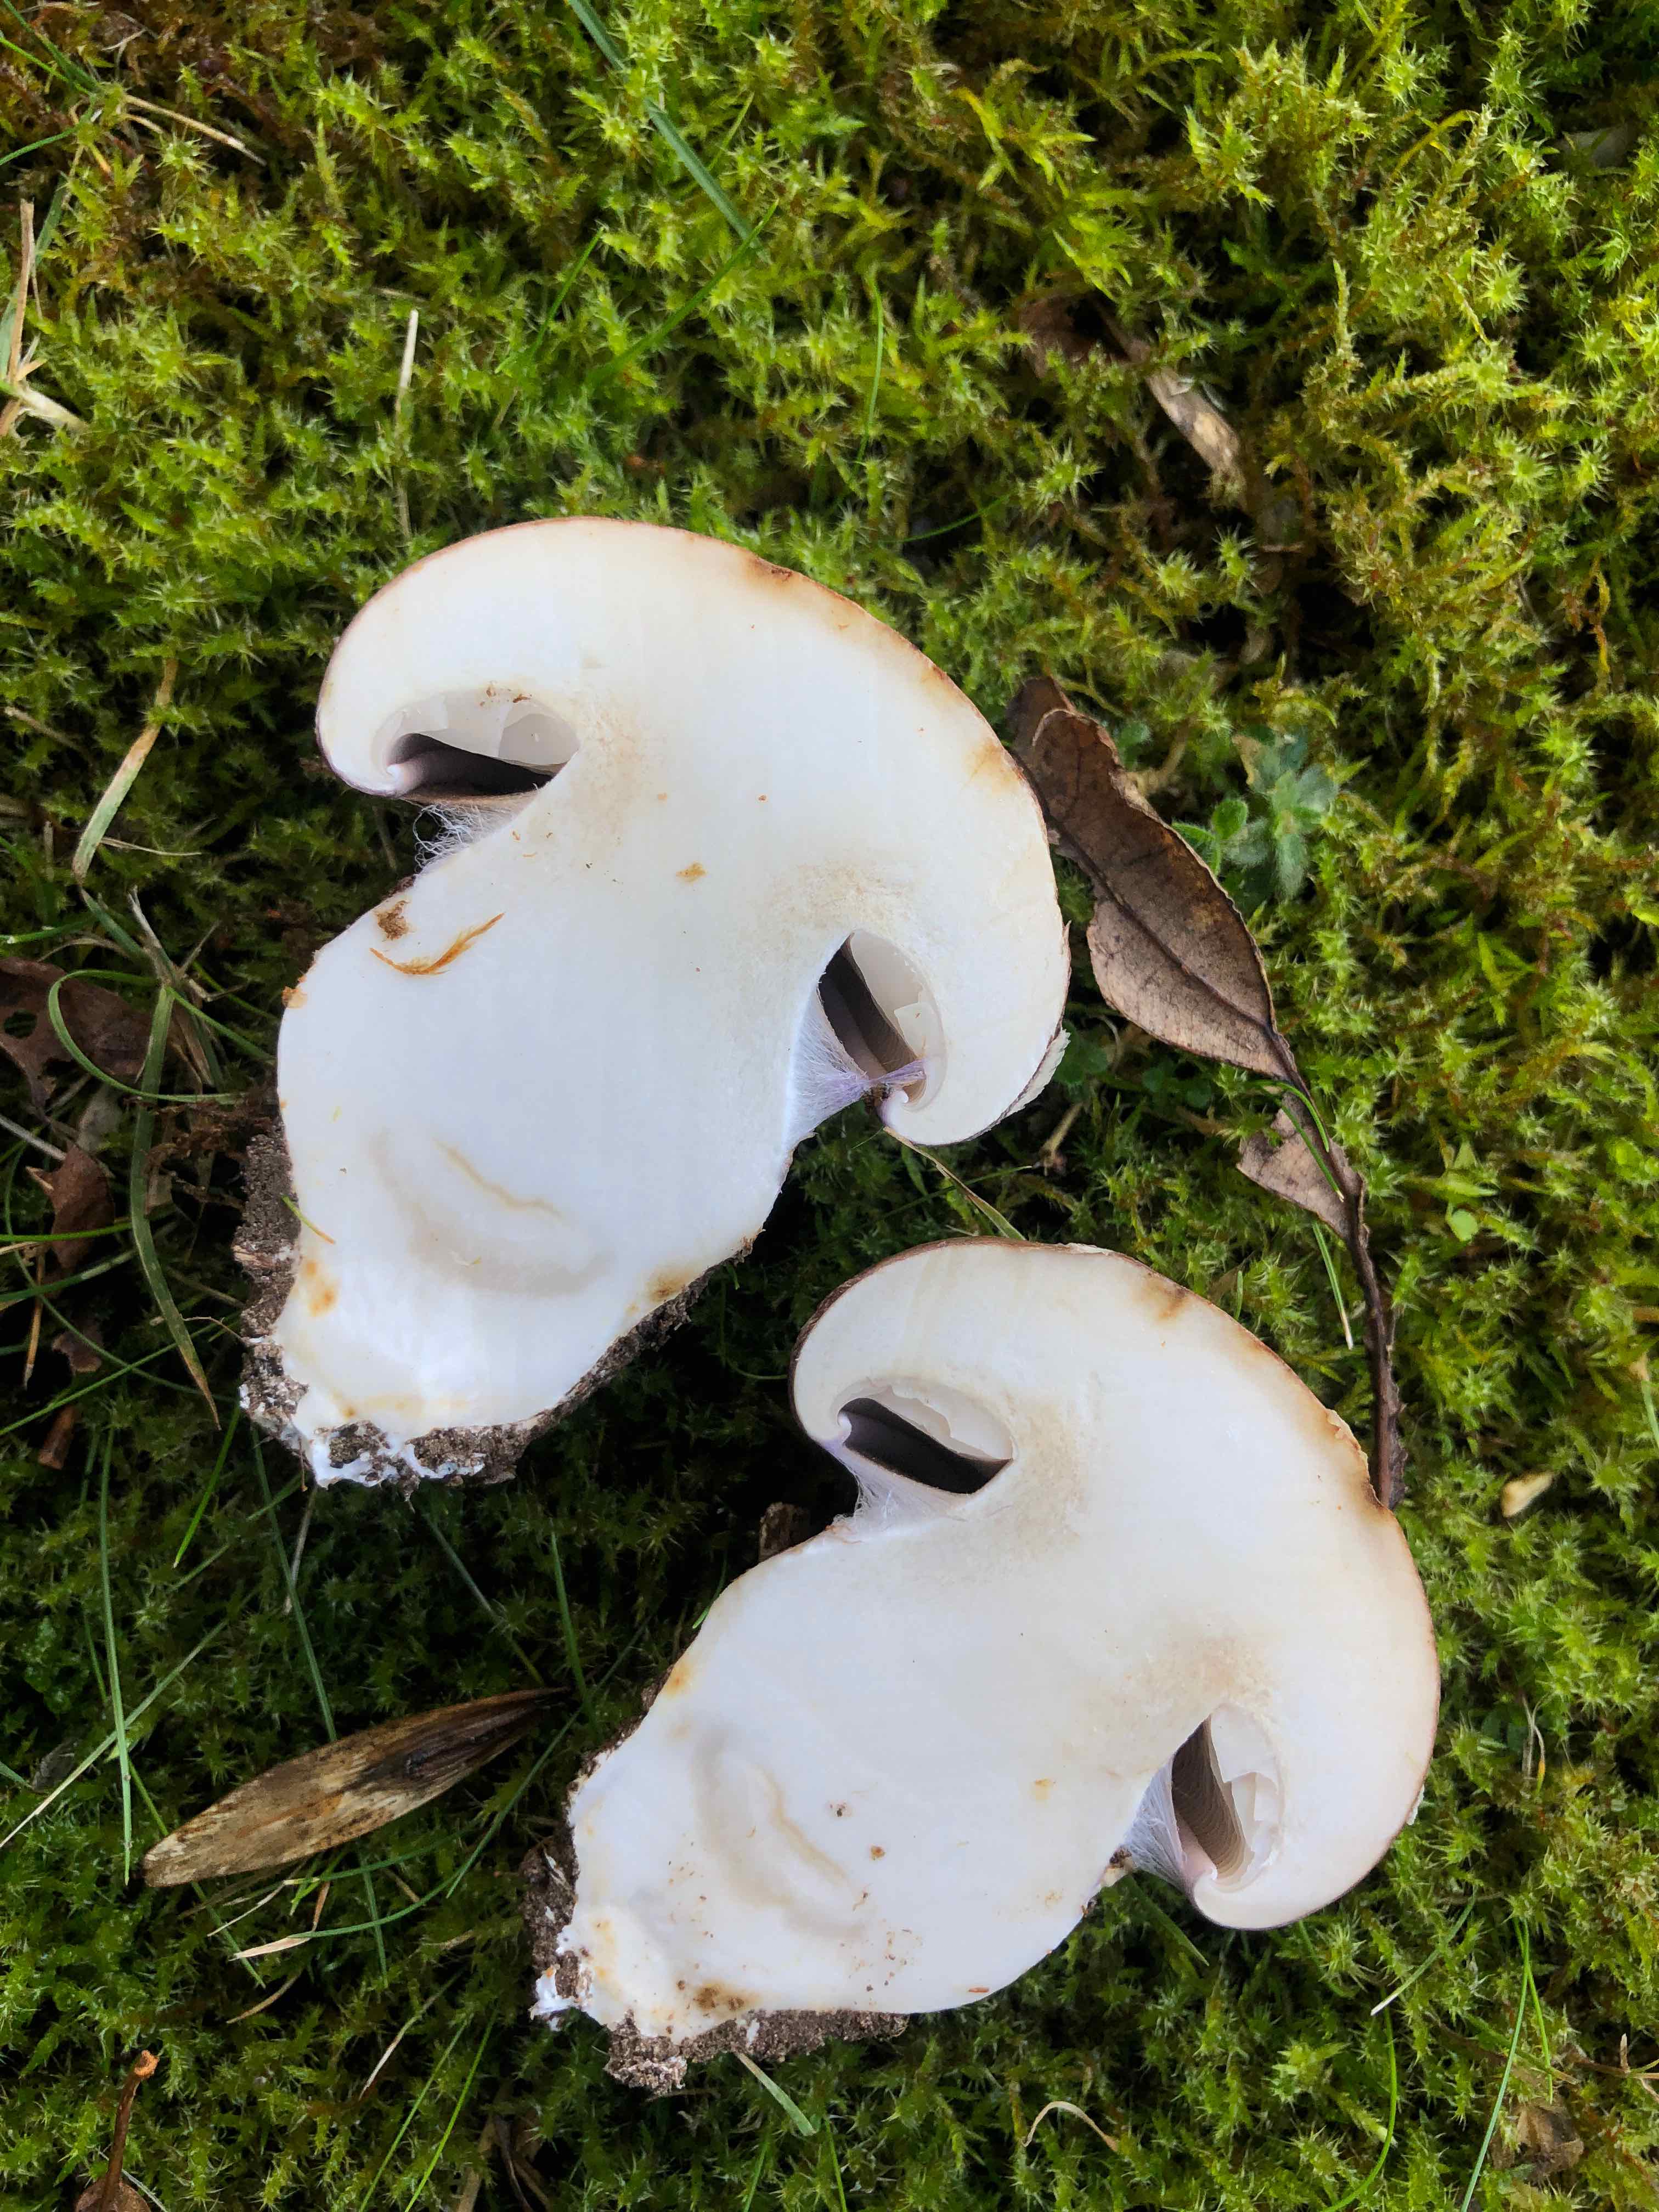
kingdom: Fungi
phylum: Basidiomycota
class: Agaricomycetes
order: Agaricales
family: Cortinariaceae
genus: Phlegmacium
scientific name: Phlegmacium balteatocumatile
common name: violettrådet slørhat
